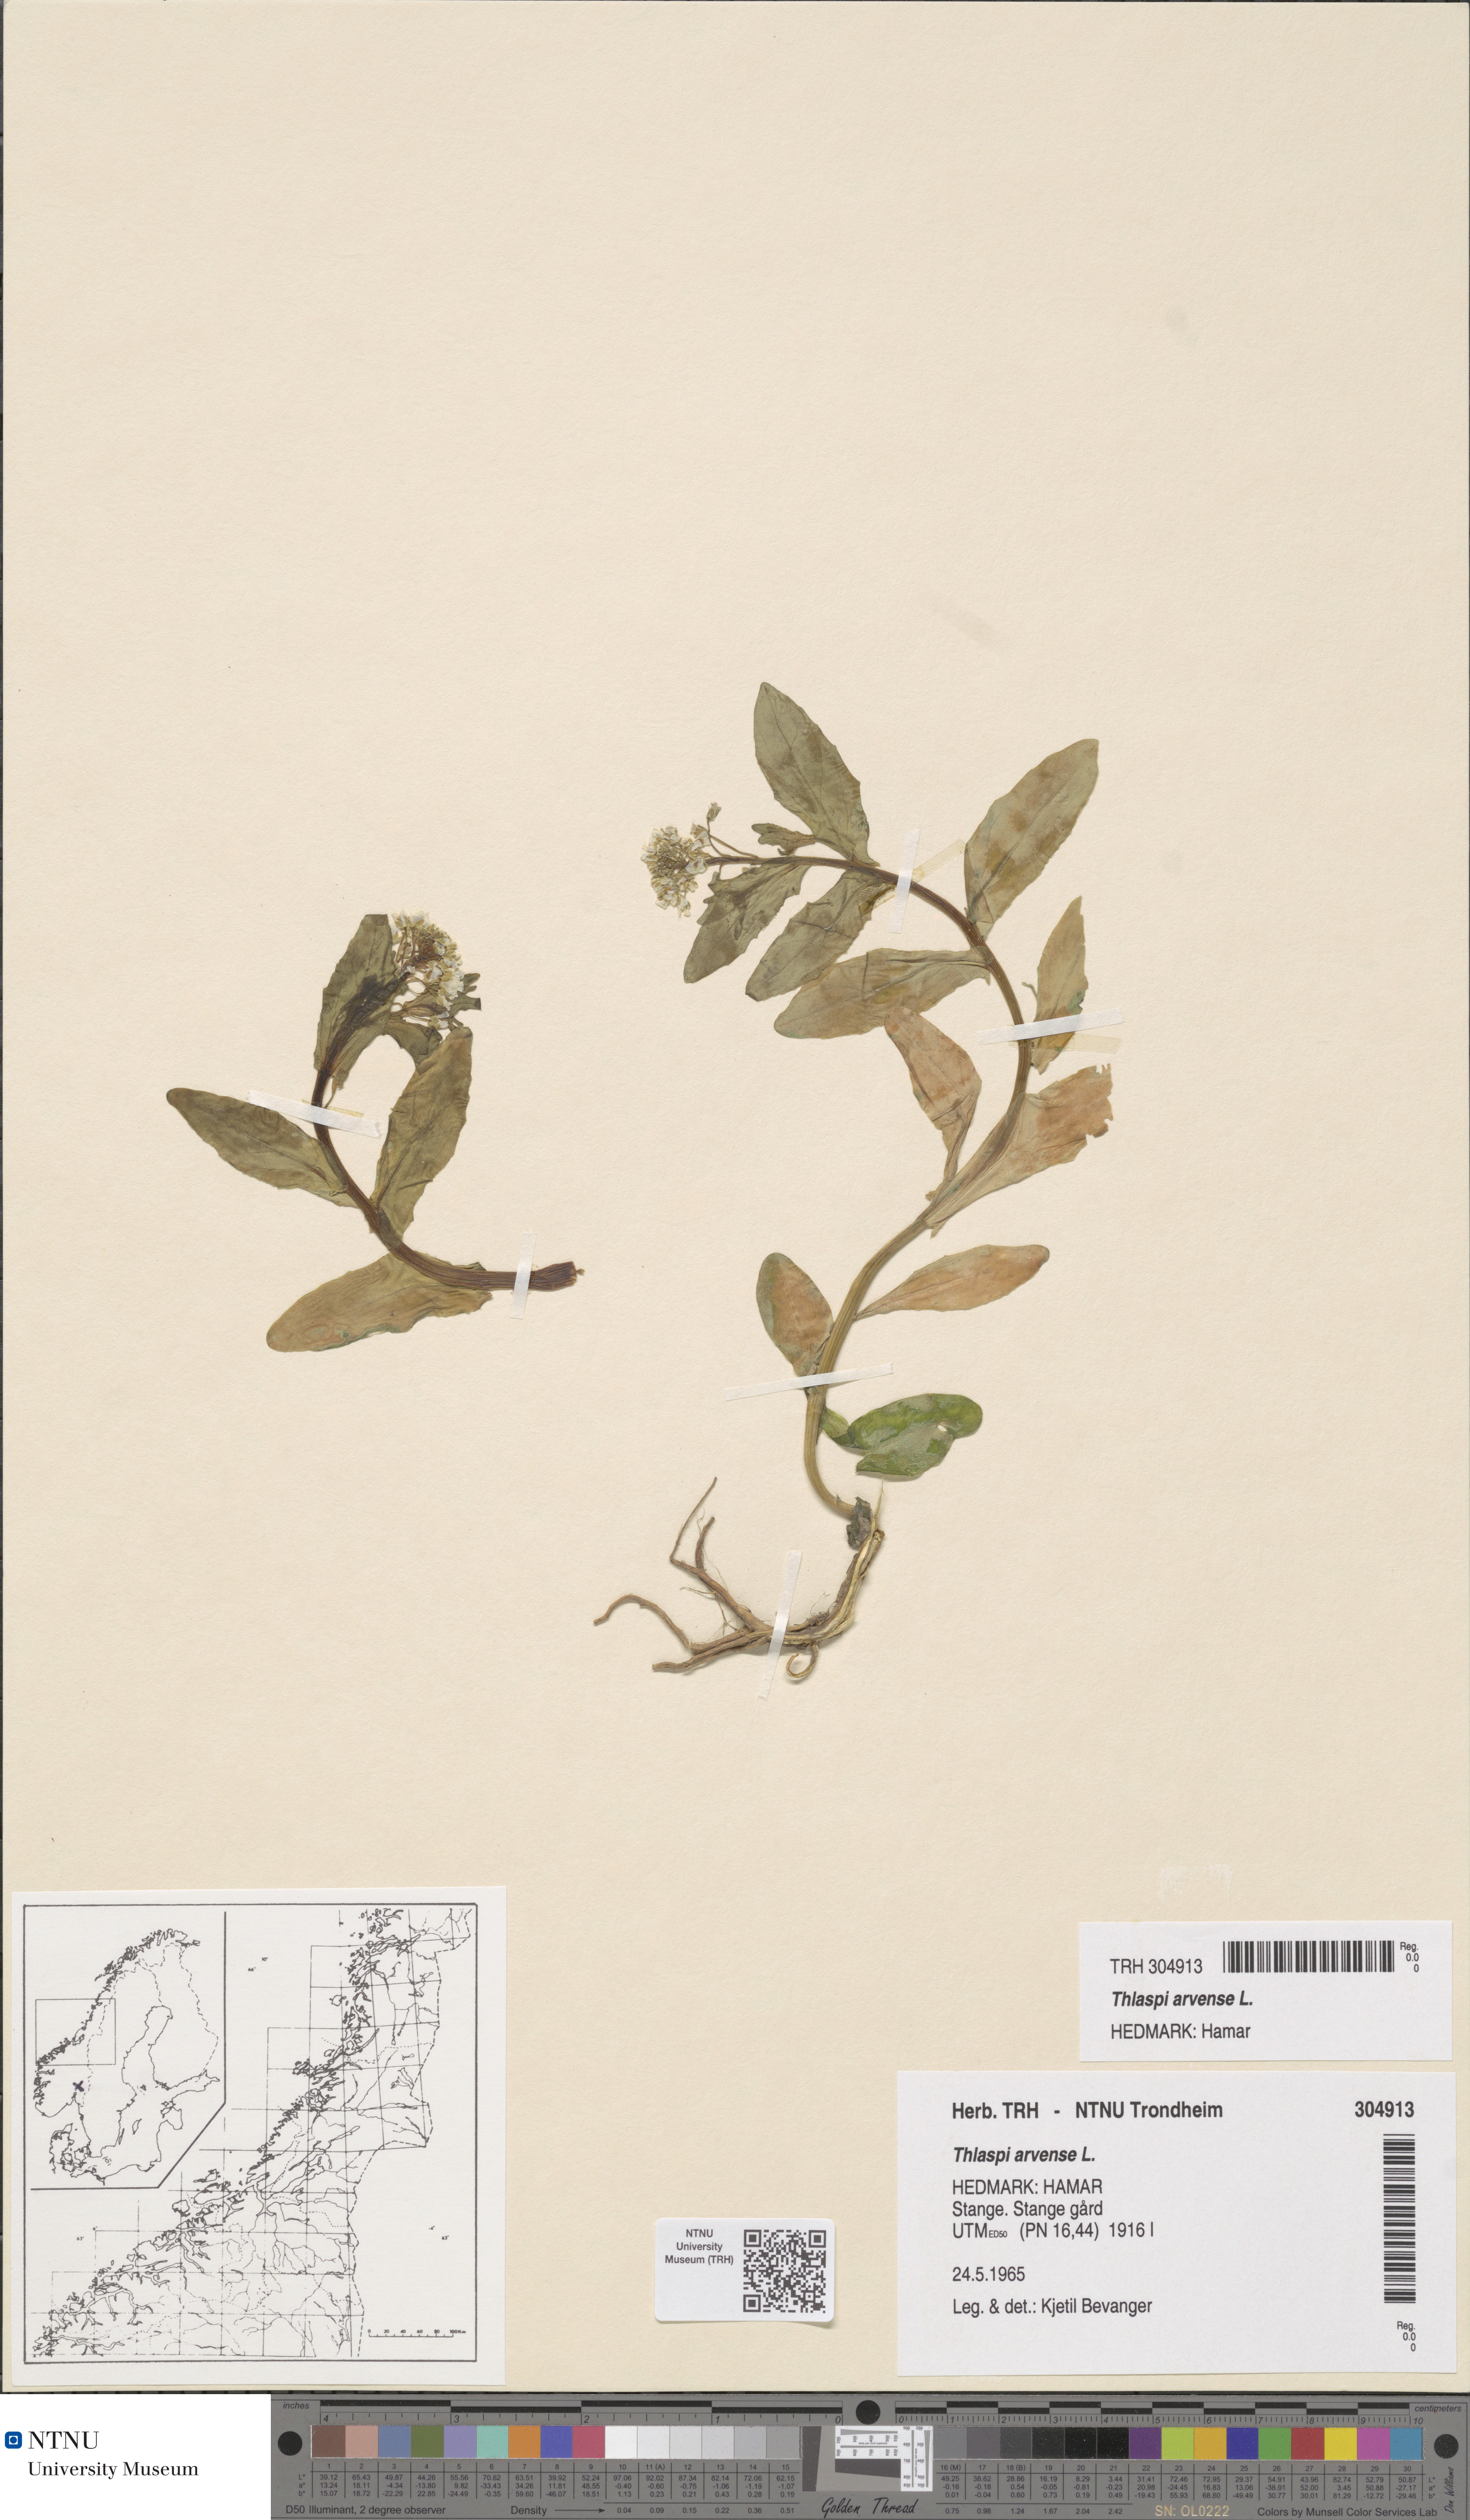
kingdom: Plantae
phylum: Tracheophyta
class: Magnoliopsida
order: Brassicales
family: Brassicaceae
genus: Thlaspi
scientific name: Thlaspi arvense
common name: Field pennycress
